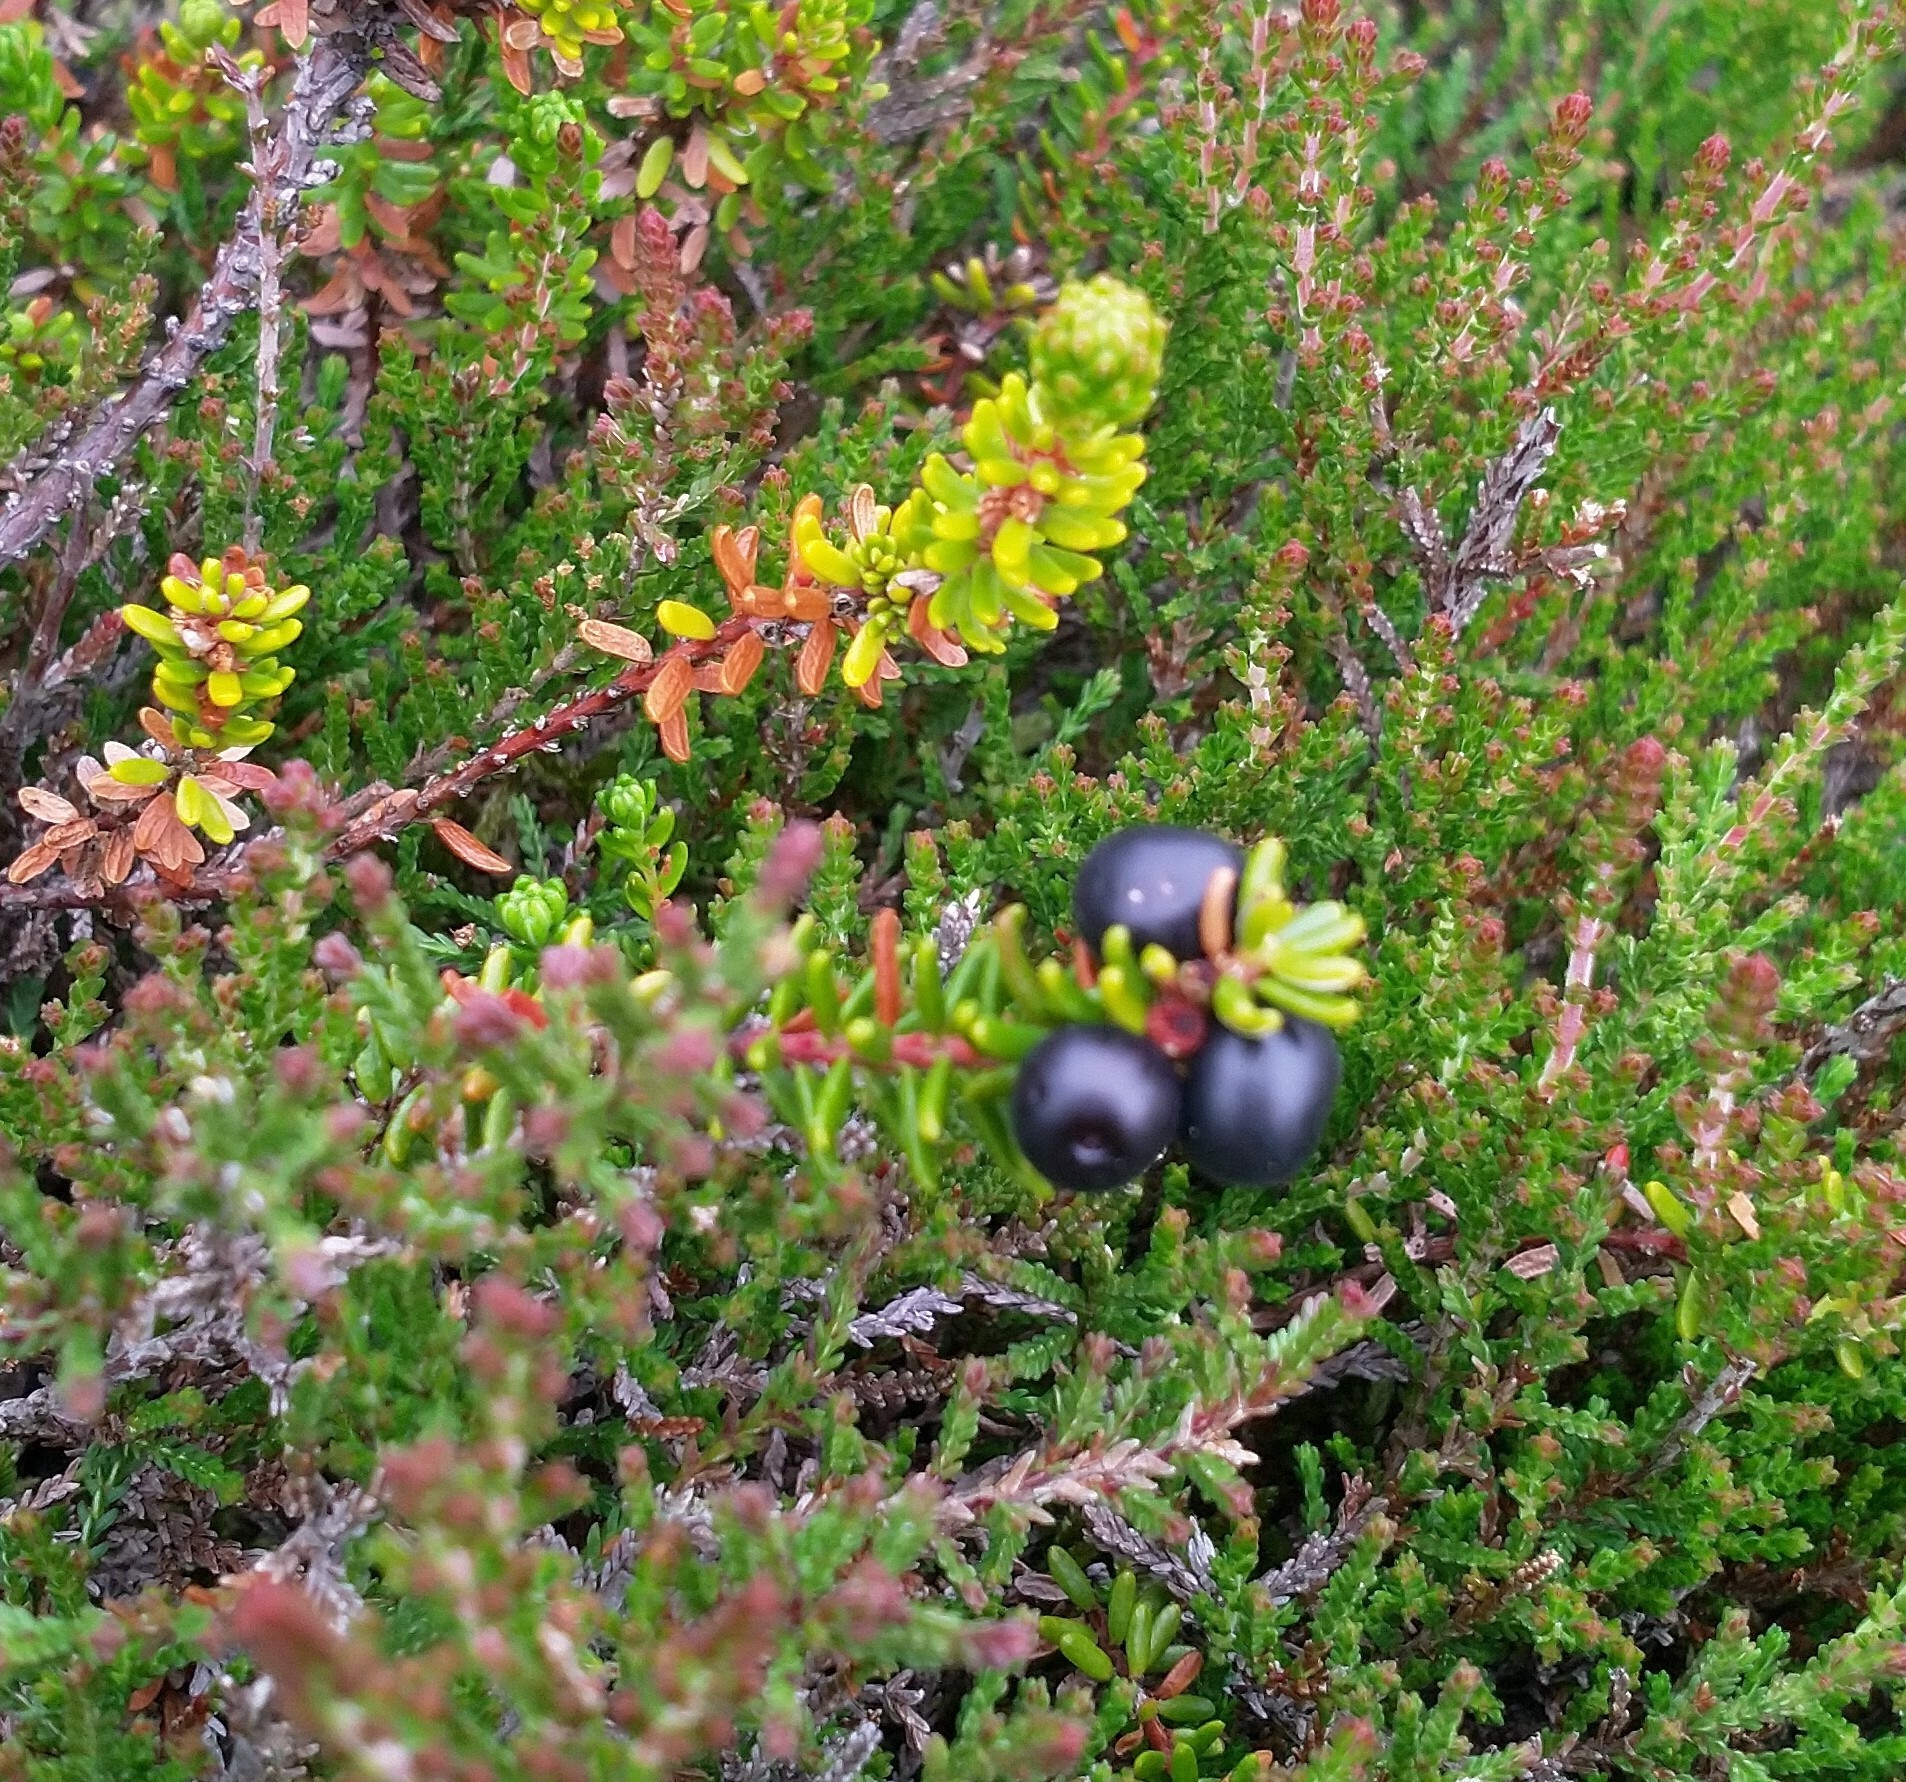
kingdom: Plantae
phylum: Tracheophyta
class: Magnoliopsida
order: Ericales
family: Ericaceae
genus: Empetrum
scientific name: Empetrum nigrum
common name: Revling
